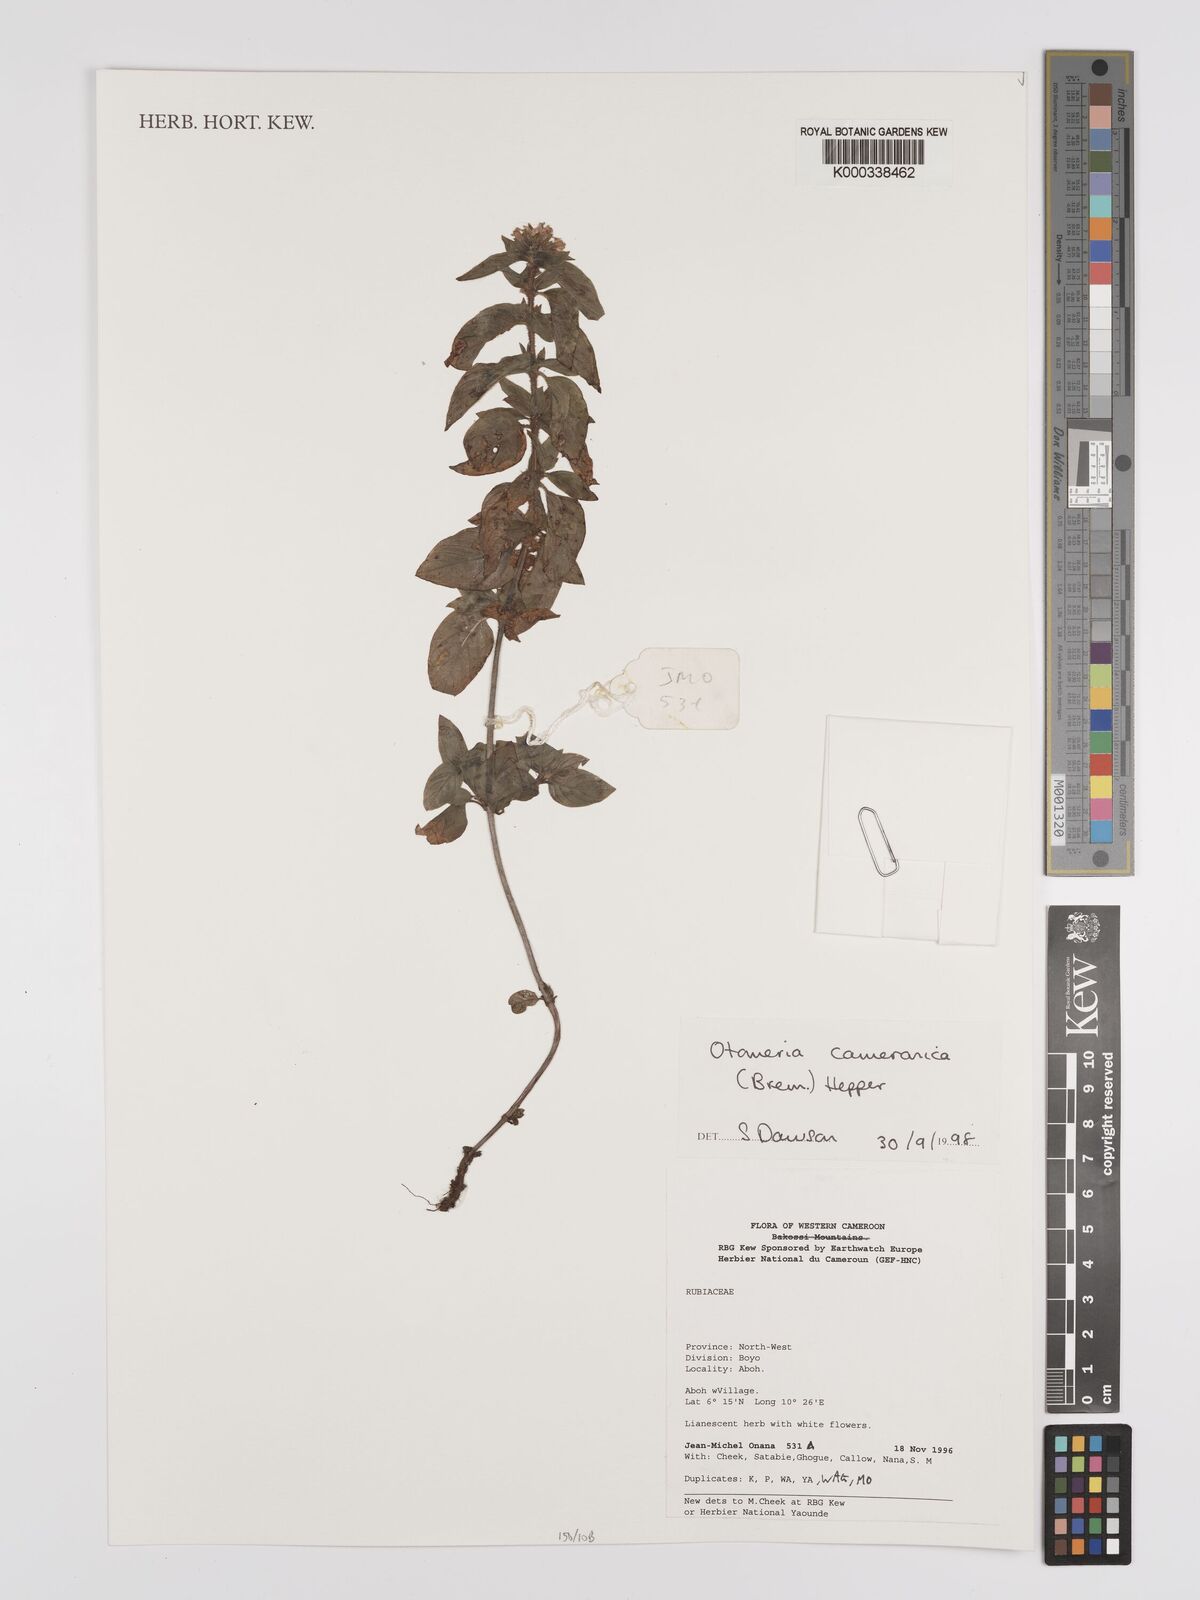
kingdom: Plantae
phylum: Tracheophyta
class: Magnoliopsida
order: Gentianales
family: Rubiaceae
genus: Otomeria
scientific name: Otomeria cameronica
